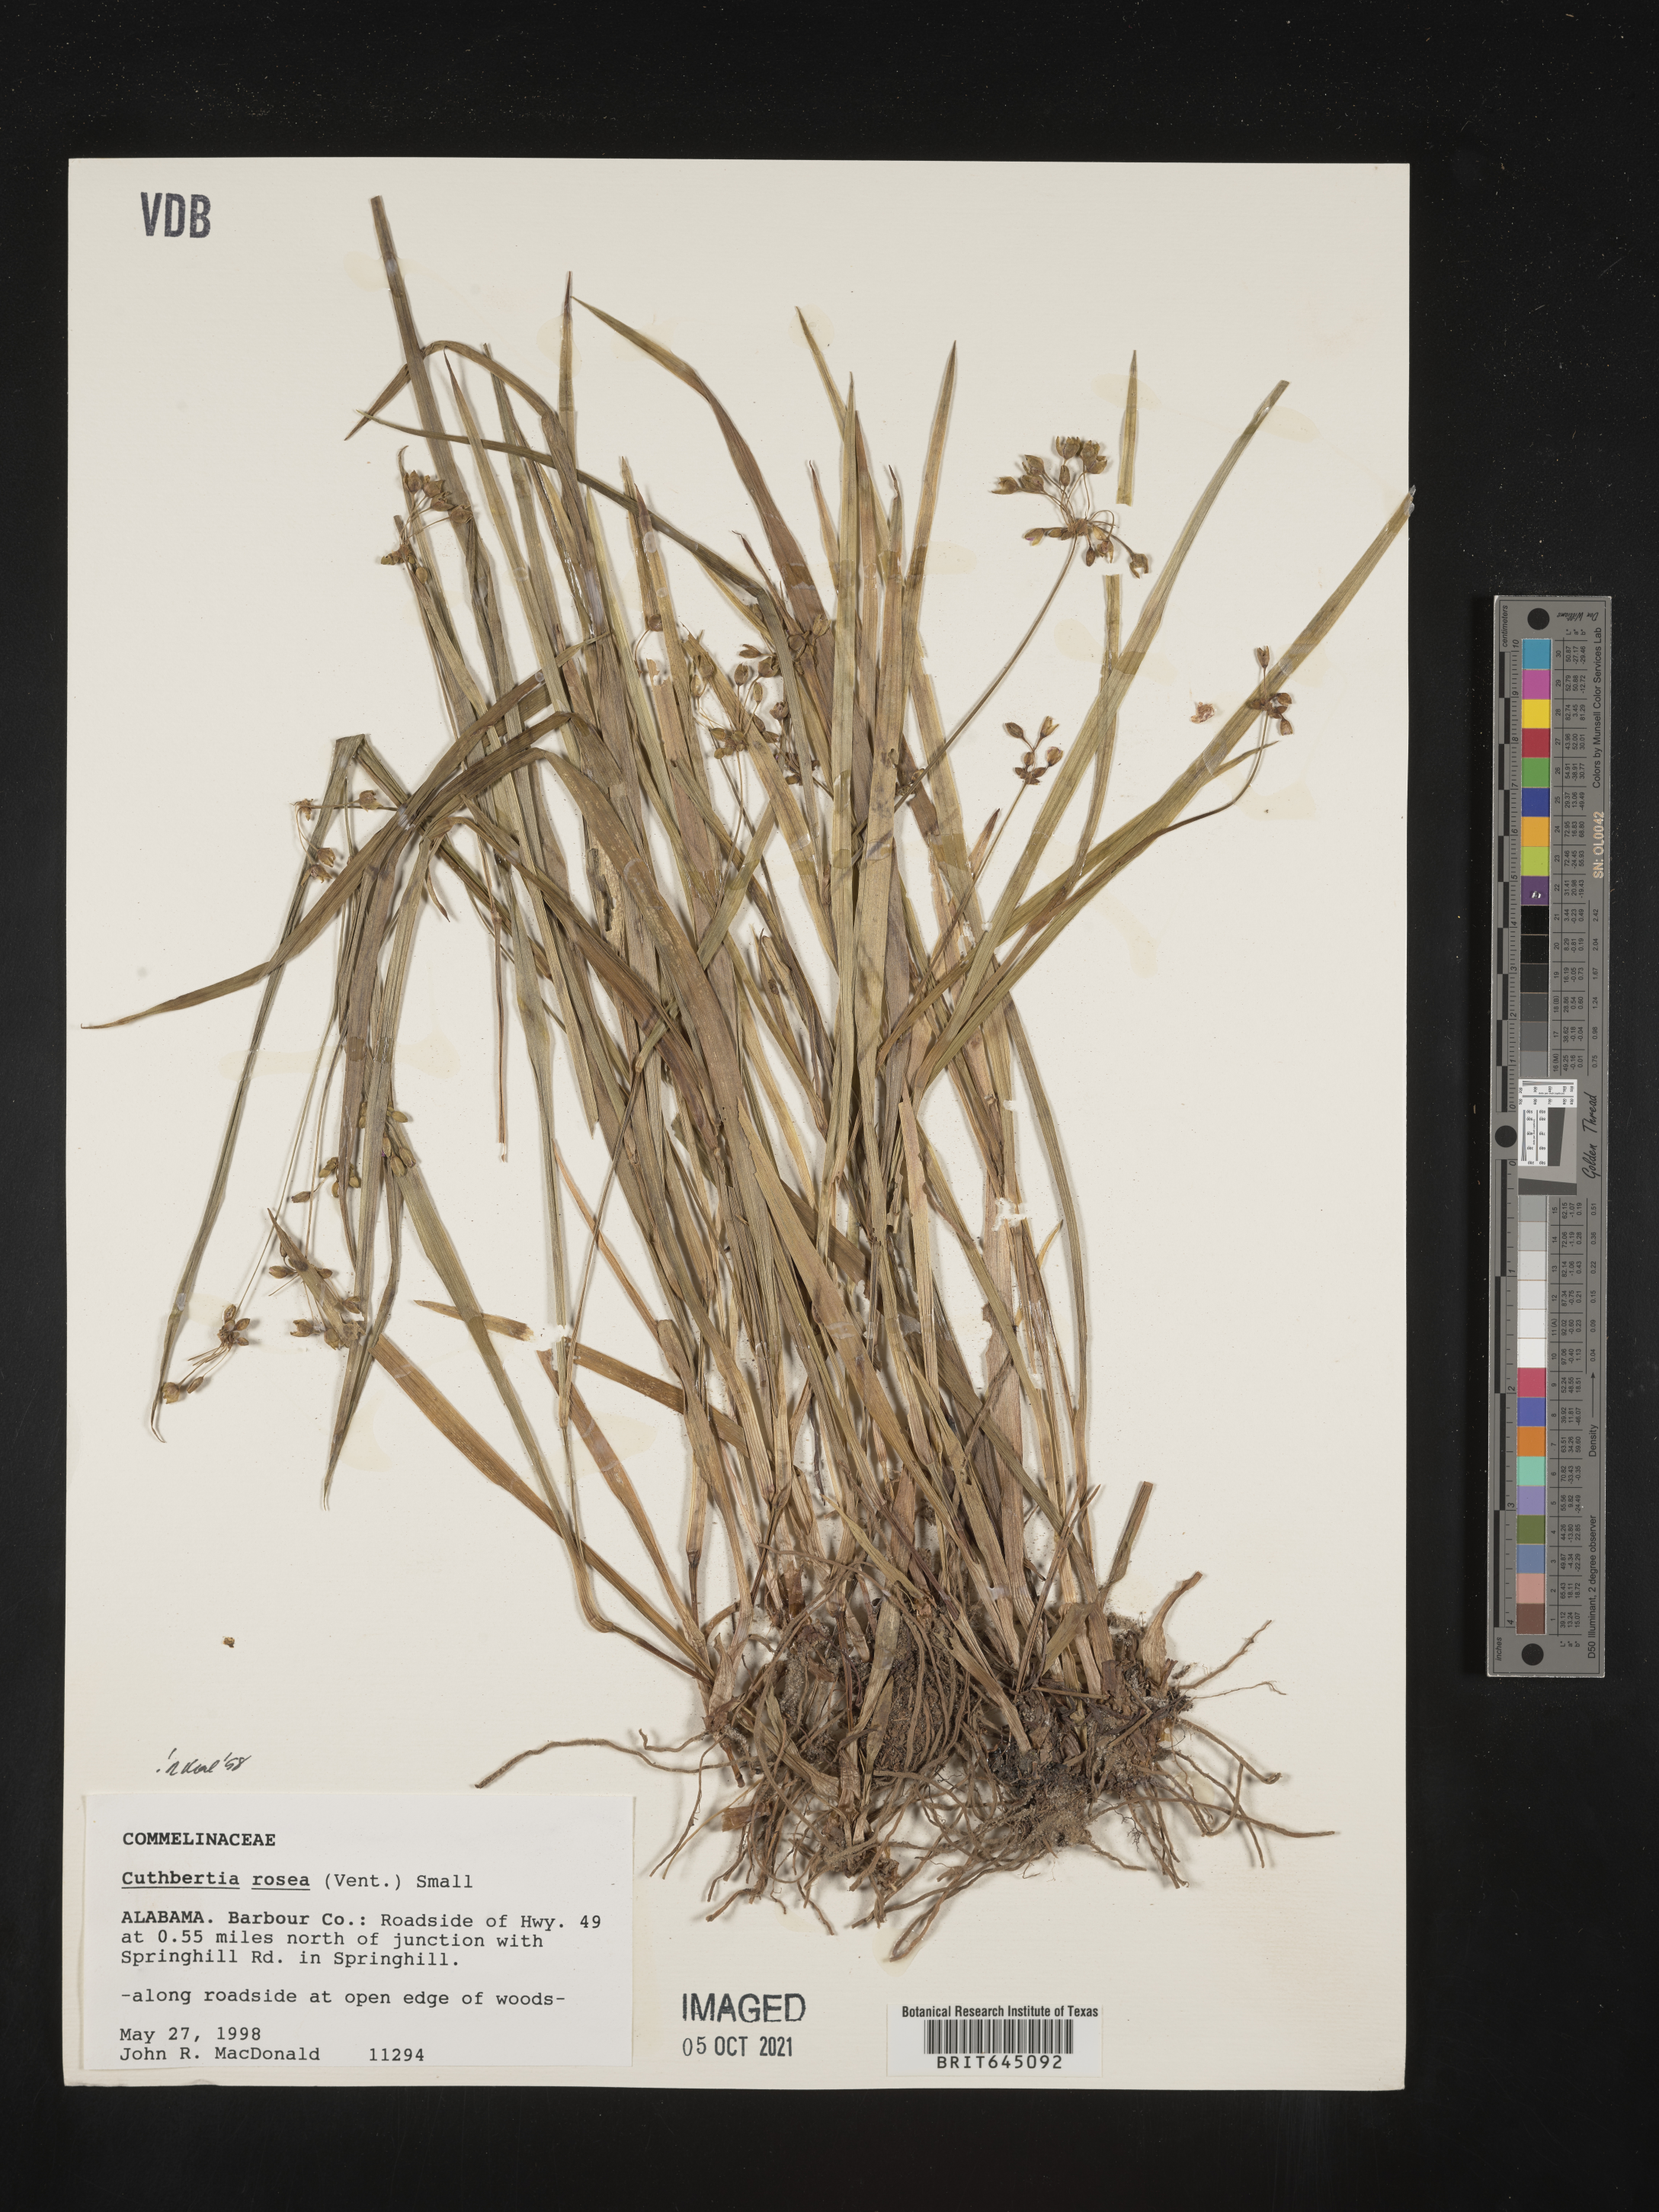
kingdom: Plantae
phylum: Tracheophyta
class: Liliopsida
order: Commelinales
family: Commelinaceae
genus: Callisia
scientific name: Callisia rosea
